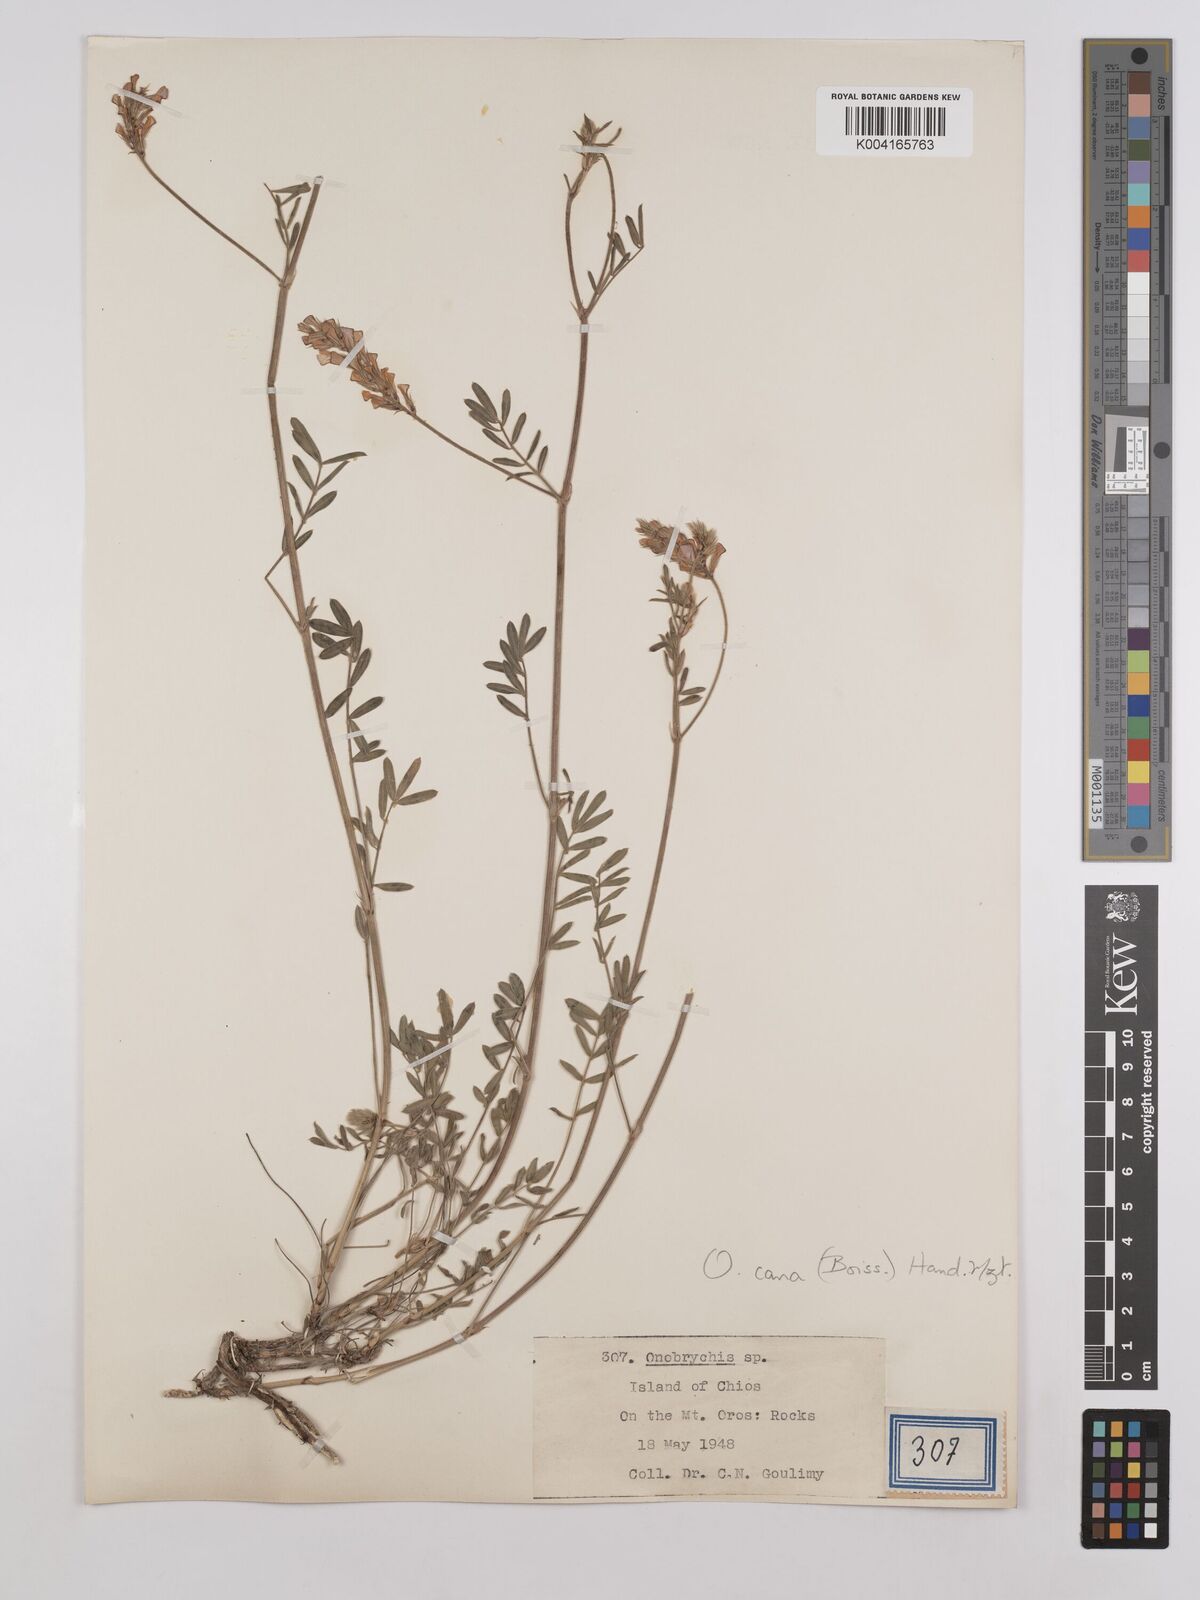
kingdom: Plantae
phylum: Tracheophyta
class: Magnoliopsida
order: Fabales
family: Fabaceae
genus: Onobrychis
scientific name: Onobrychis arenaria
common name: Sand esparcet
